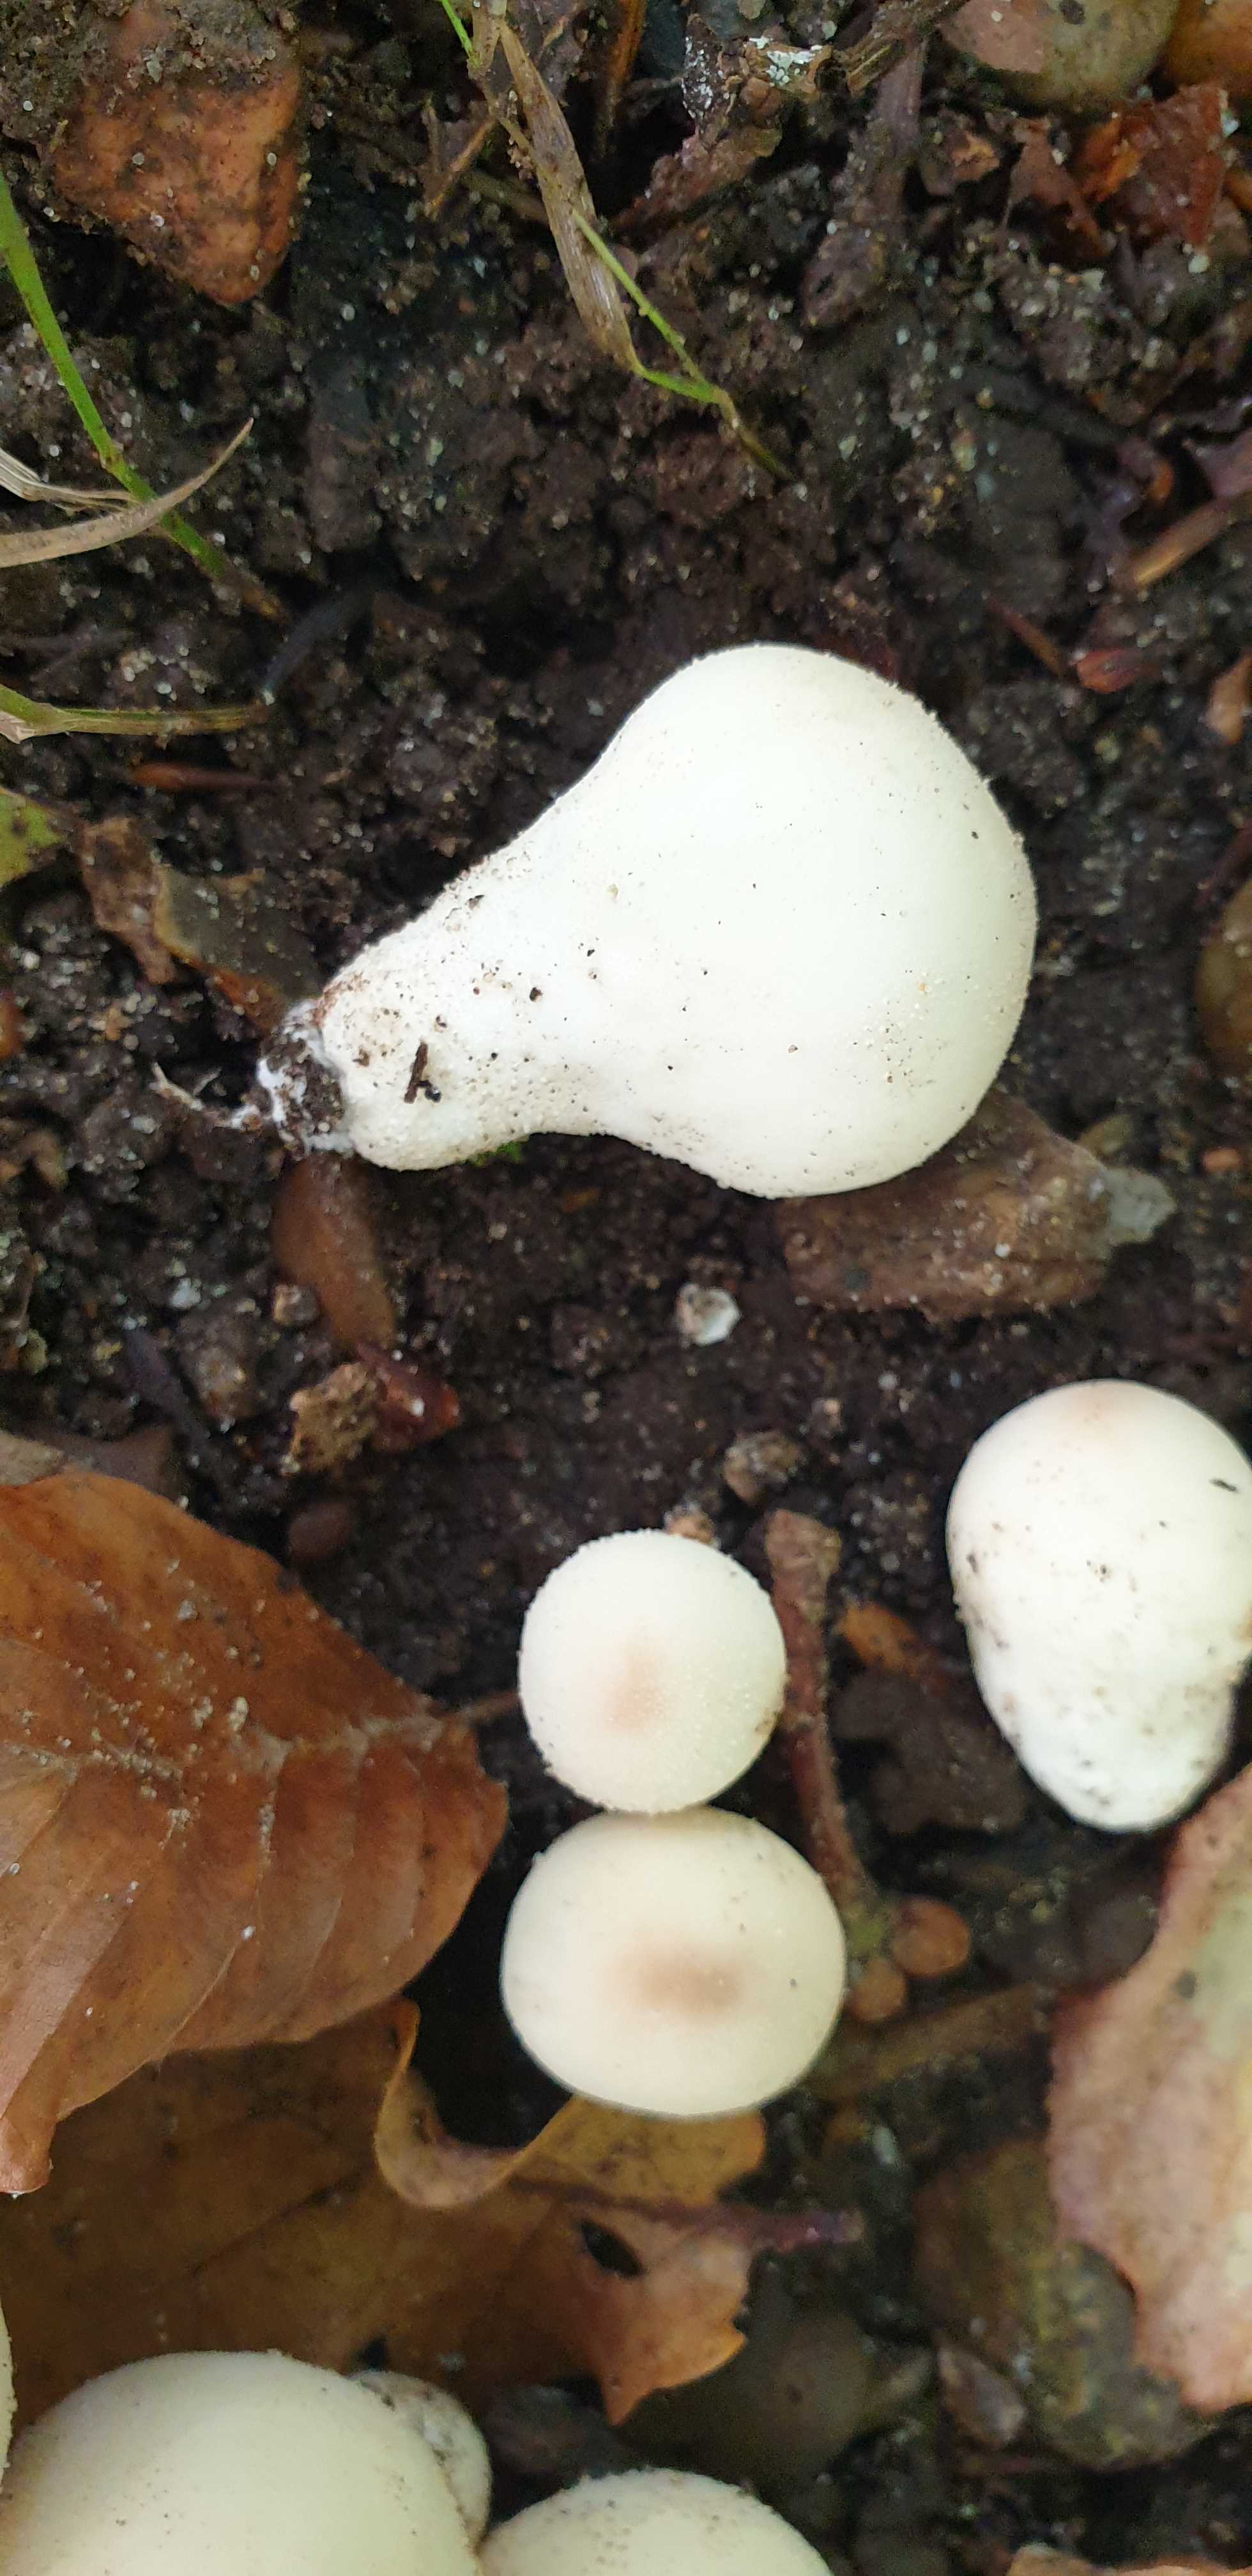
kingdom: Fungi
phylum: Basidiomycota
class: Agaricomycetes
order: Agaricales
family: Lycoperdaceae
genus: Apioperdon
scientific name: Apioperdon pyriforme
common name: pære-støvbold
